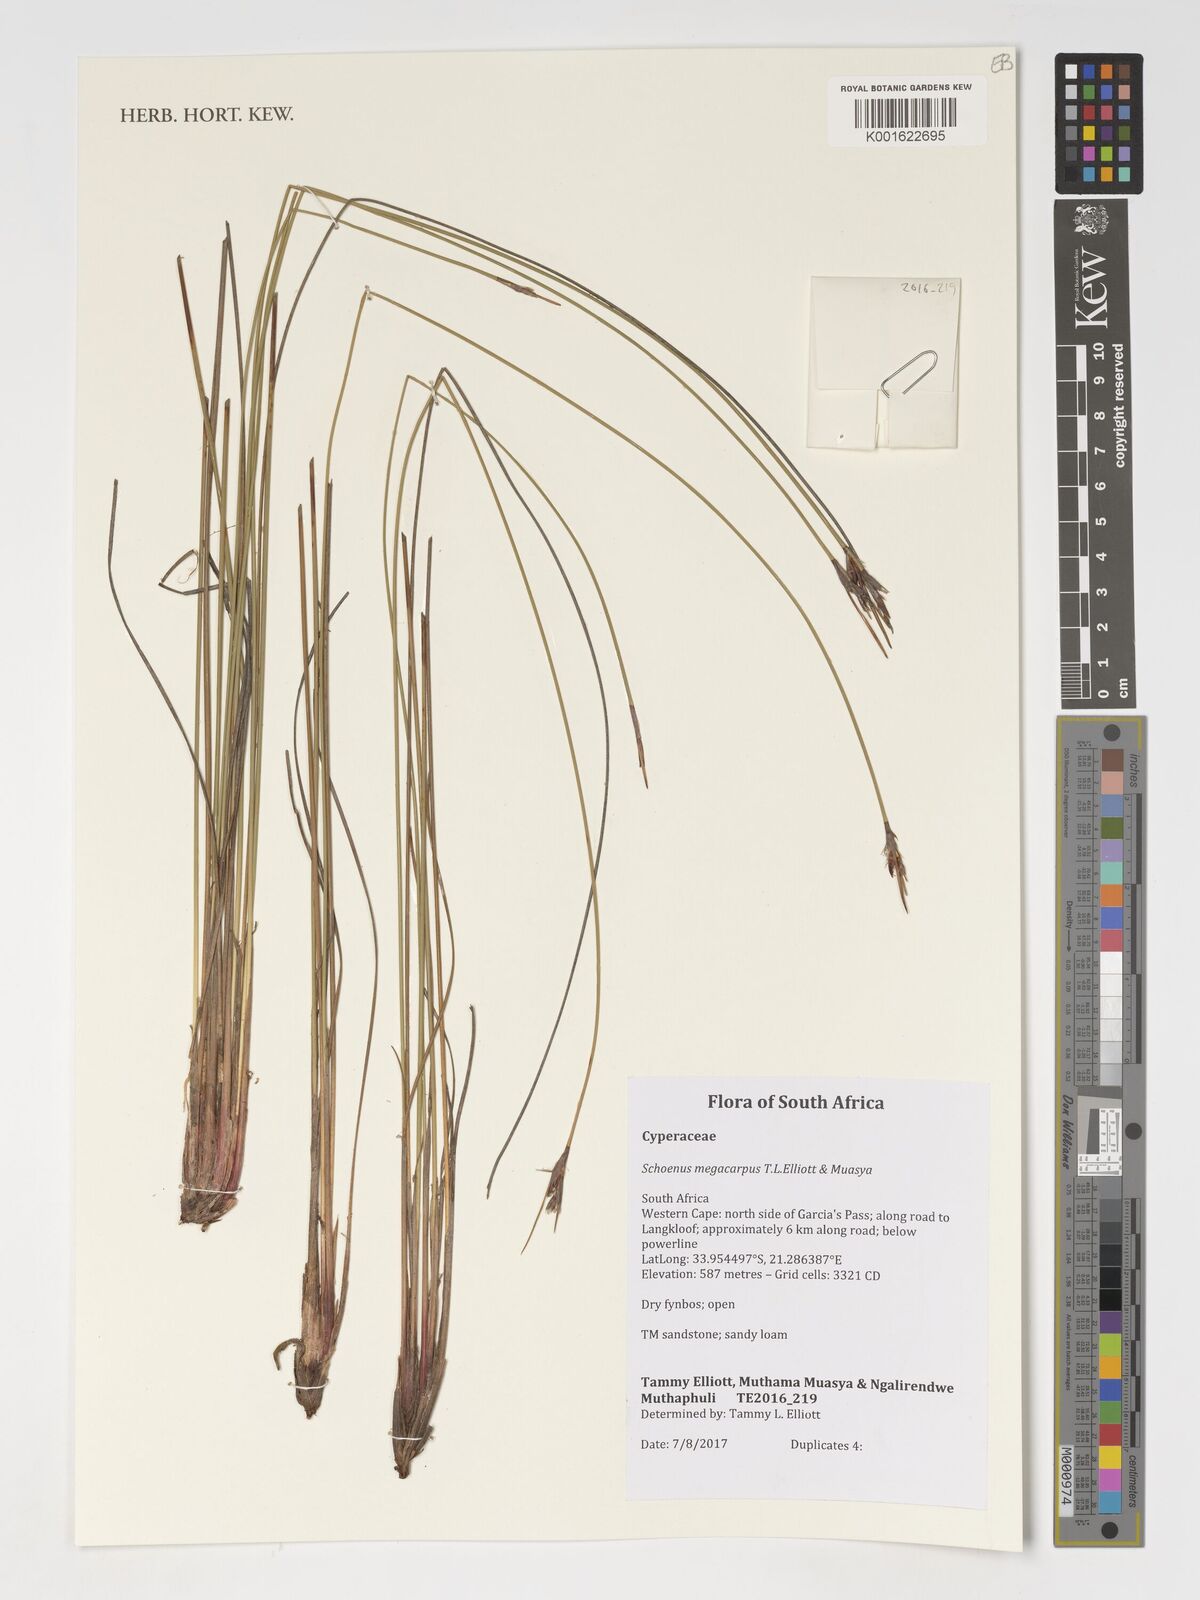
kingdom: Plantae
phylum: Tracheophyta
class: Liliopsida
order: Poales
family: Cyperaceae
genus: Schoenus
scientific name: Schoenus megacarpus
